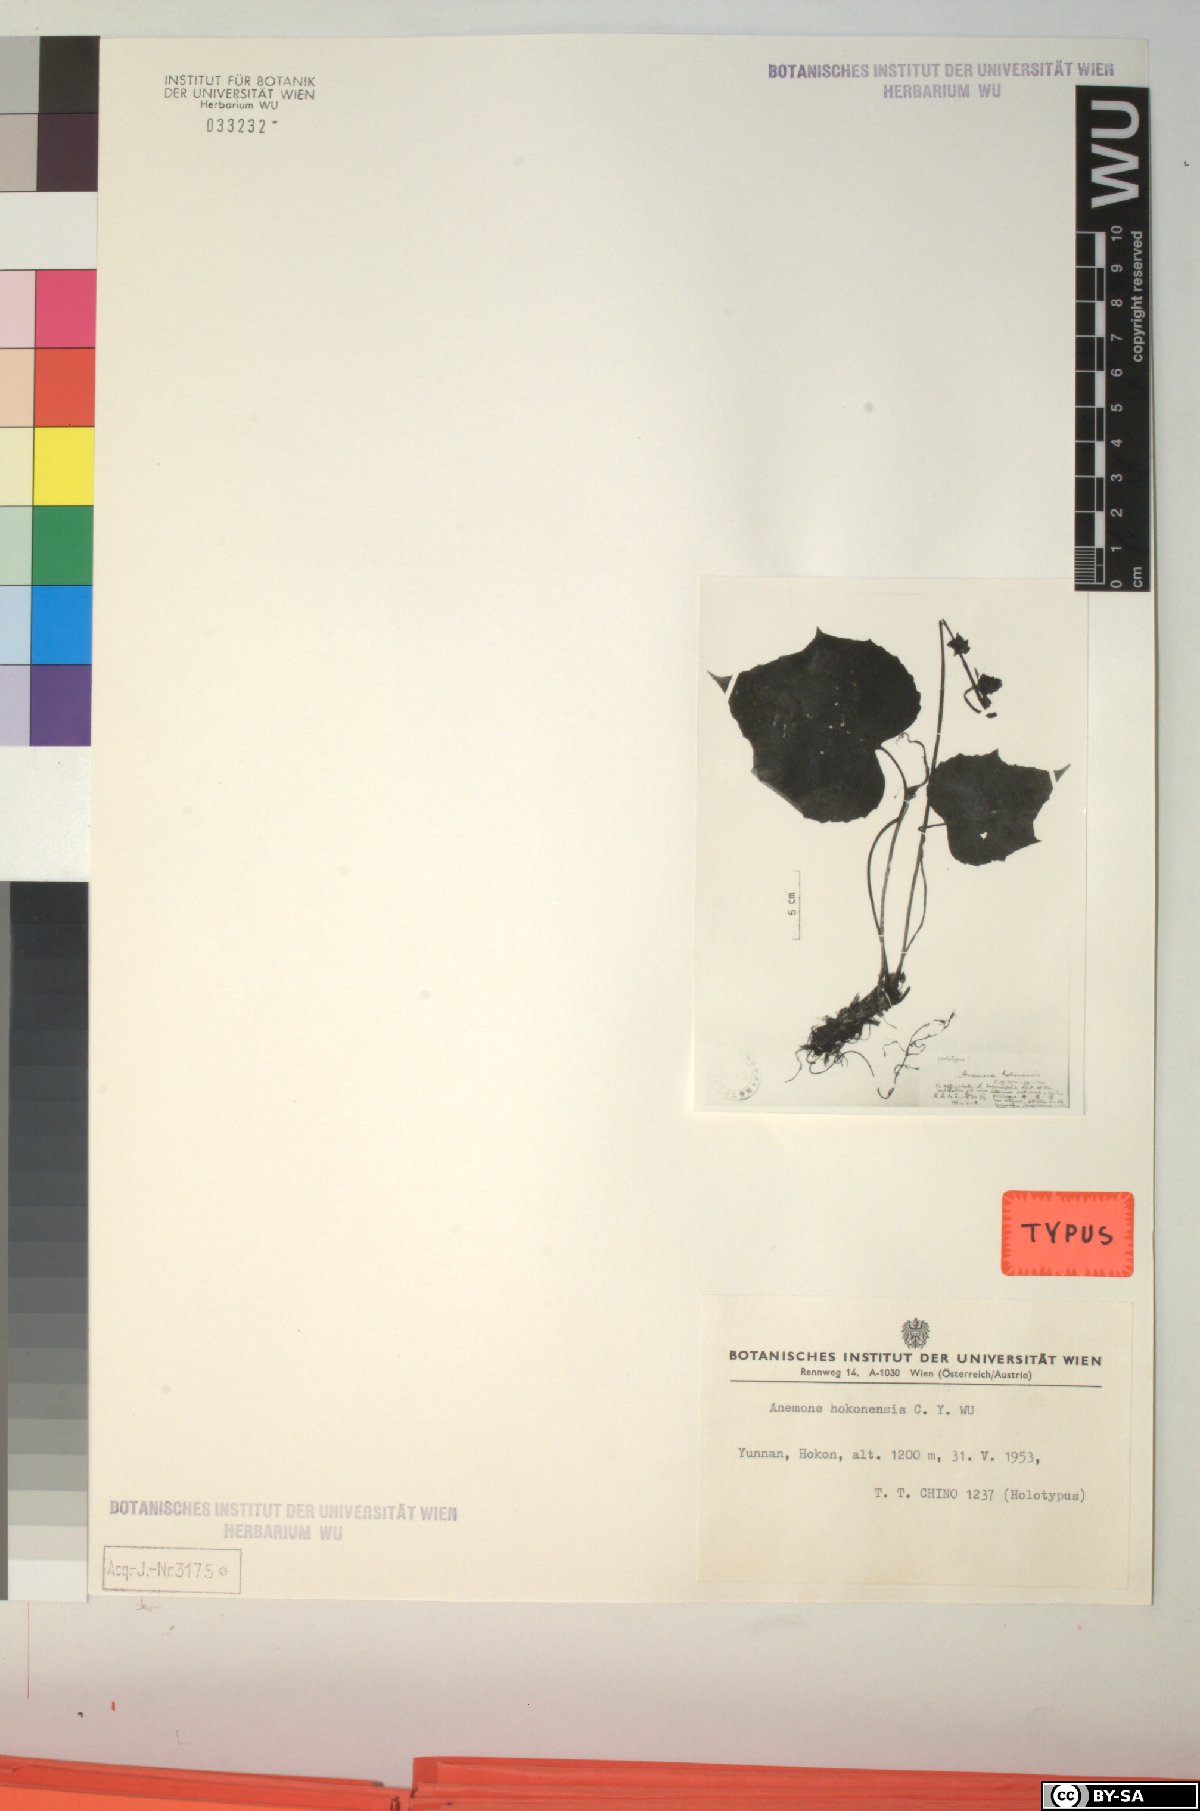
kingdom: Plantae
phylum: Tracheophyta
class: Magnoliopsida
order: Ranunculales
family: Ranunculaceae
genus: Anemone
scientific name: Anemone hokouensis
